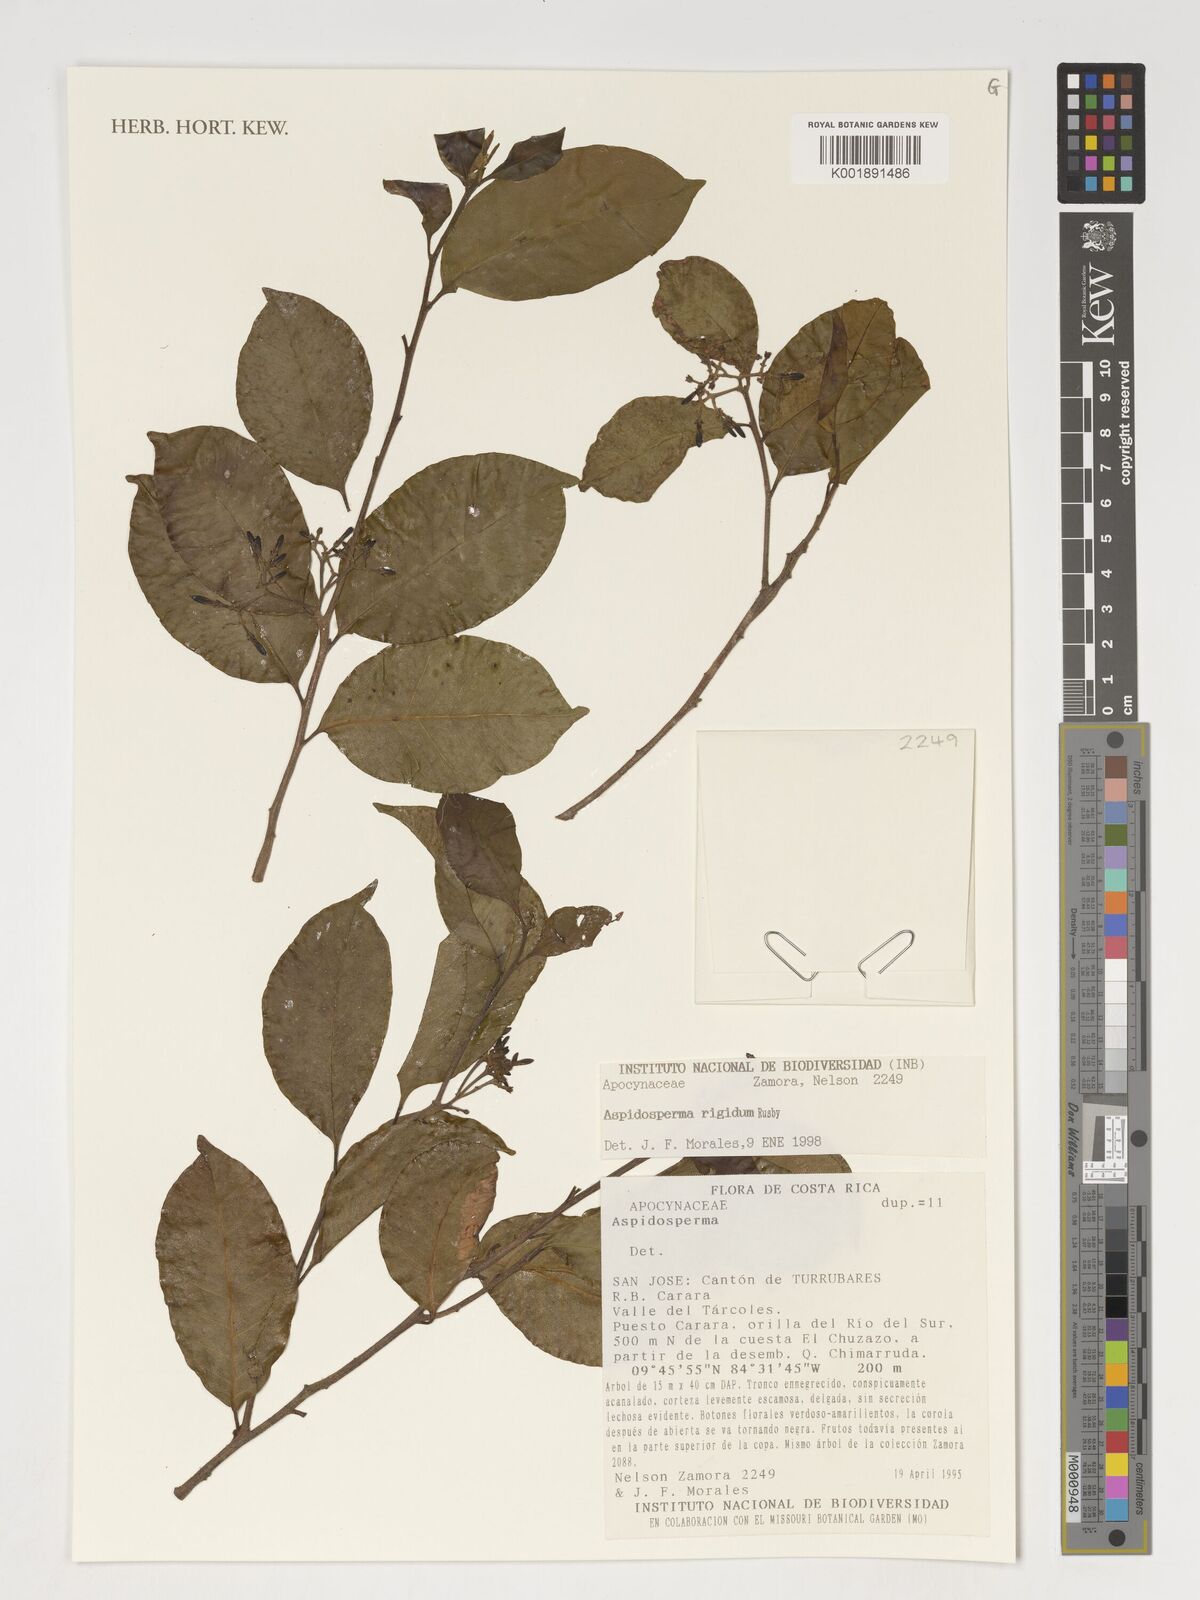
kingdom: Plantae
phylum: Tracheophyta
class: Magnoliopsida
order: Gentianales
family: Apocynaceae
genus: Aspidosperma
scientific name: Aspidosperma rigidum
